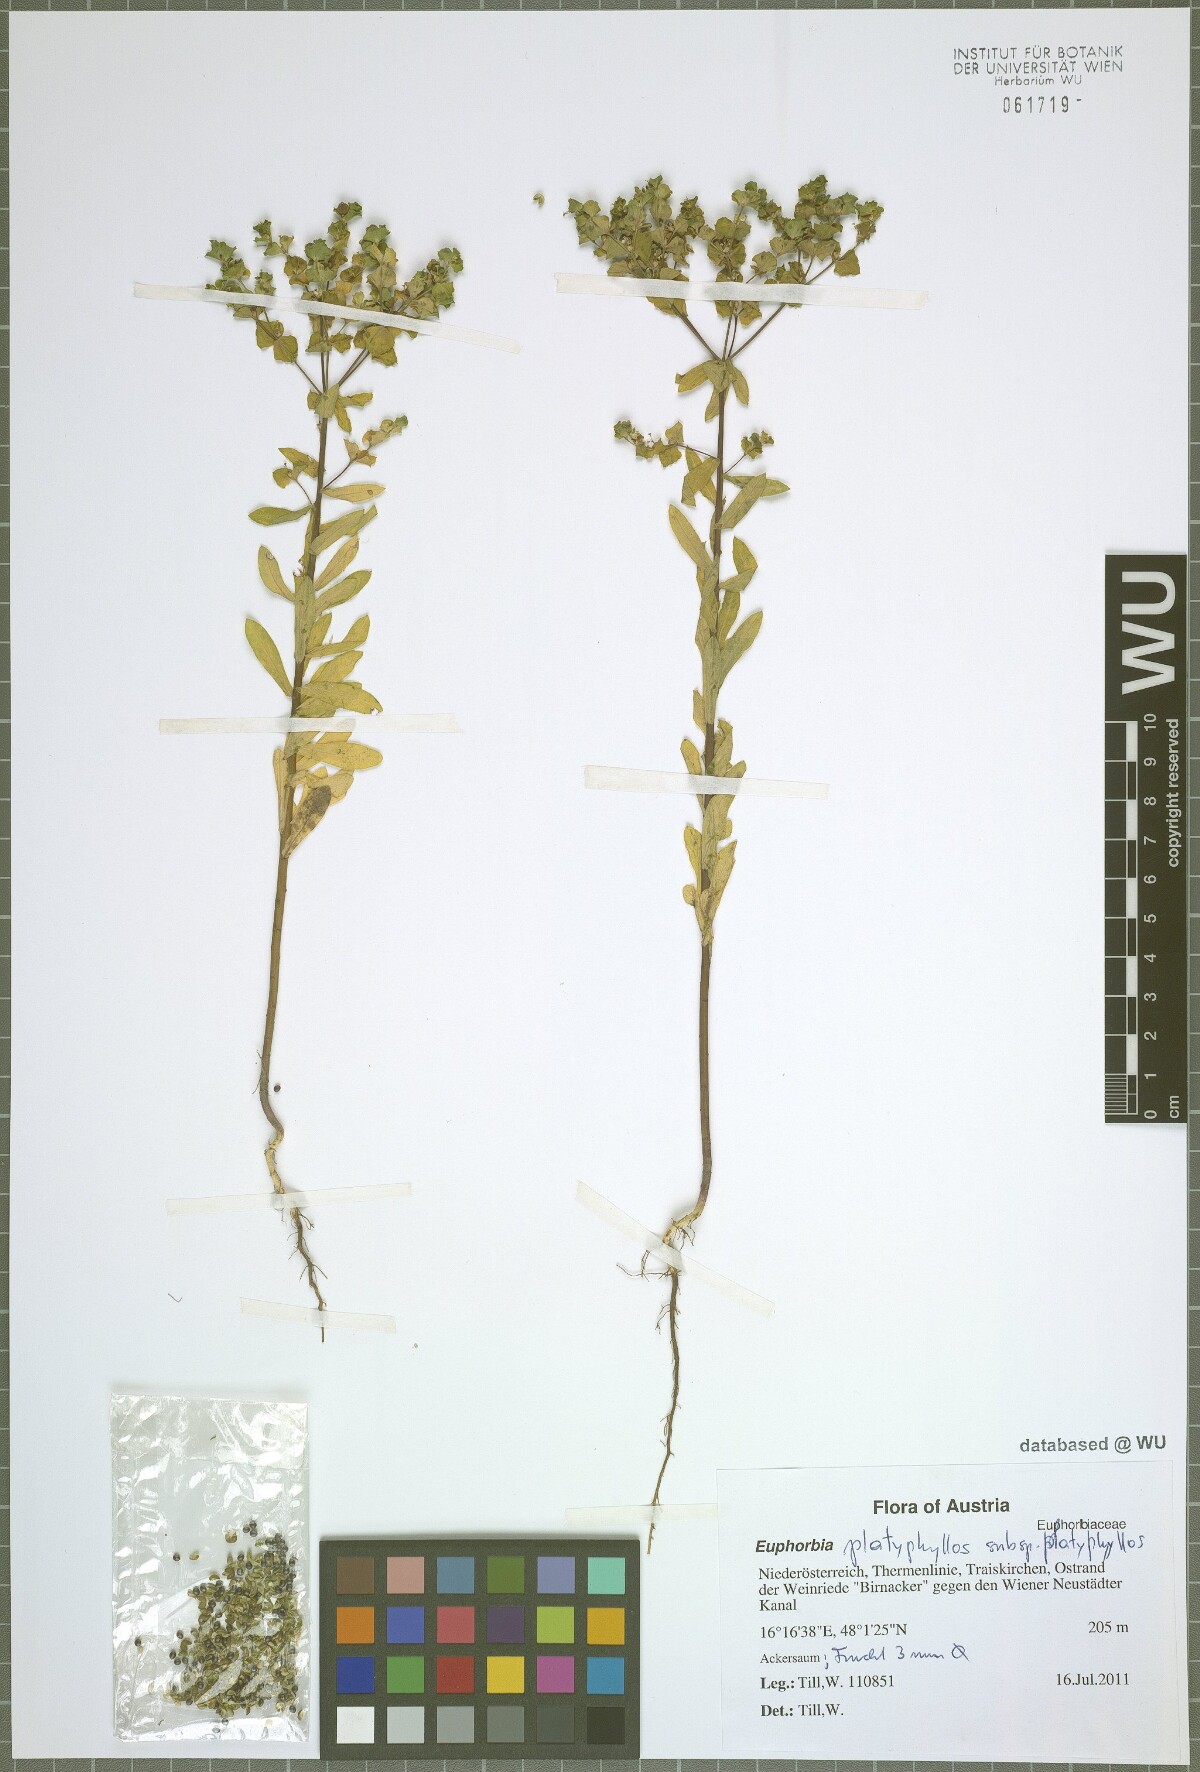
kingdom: Plantae
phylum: Tracheophyta
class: Magnoliopsida
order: Malpighiales
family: Euphorbiaceae
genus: Euphorbia
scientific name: Euphorbia platyphyllos
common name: Broad-leaved spurge
